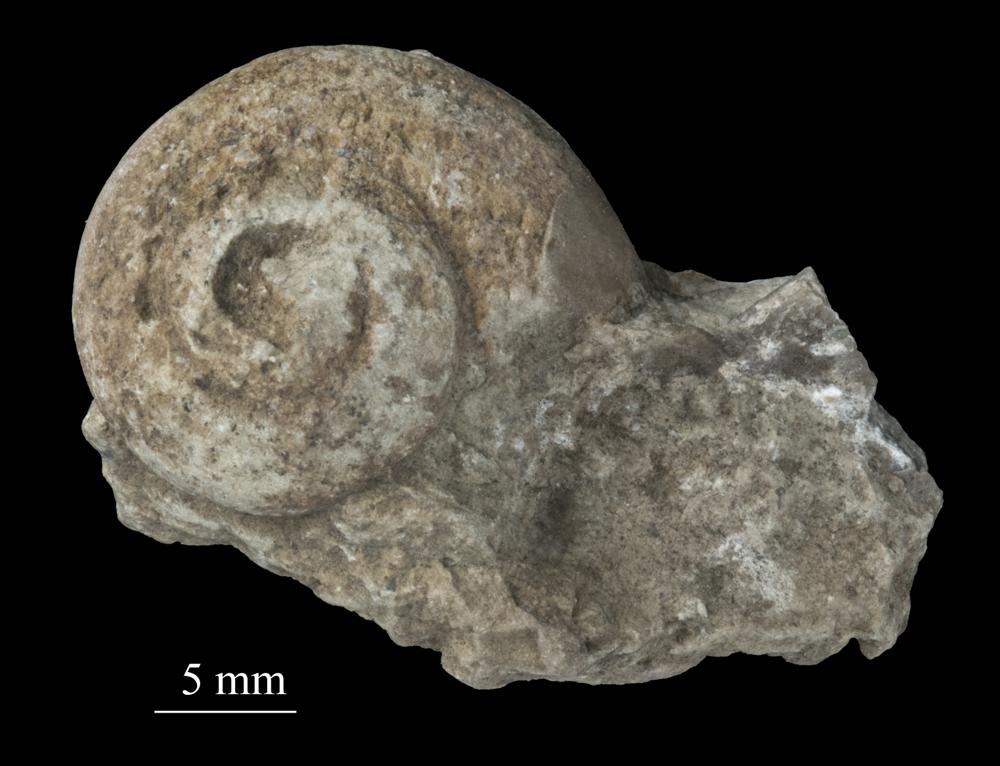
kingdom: Animalia
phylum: Mollusca
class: Gastropoda
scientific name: Gastropoda
